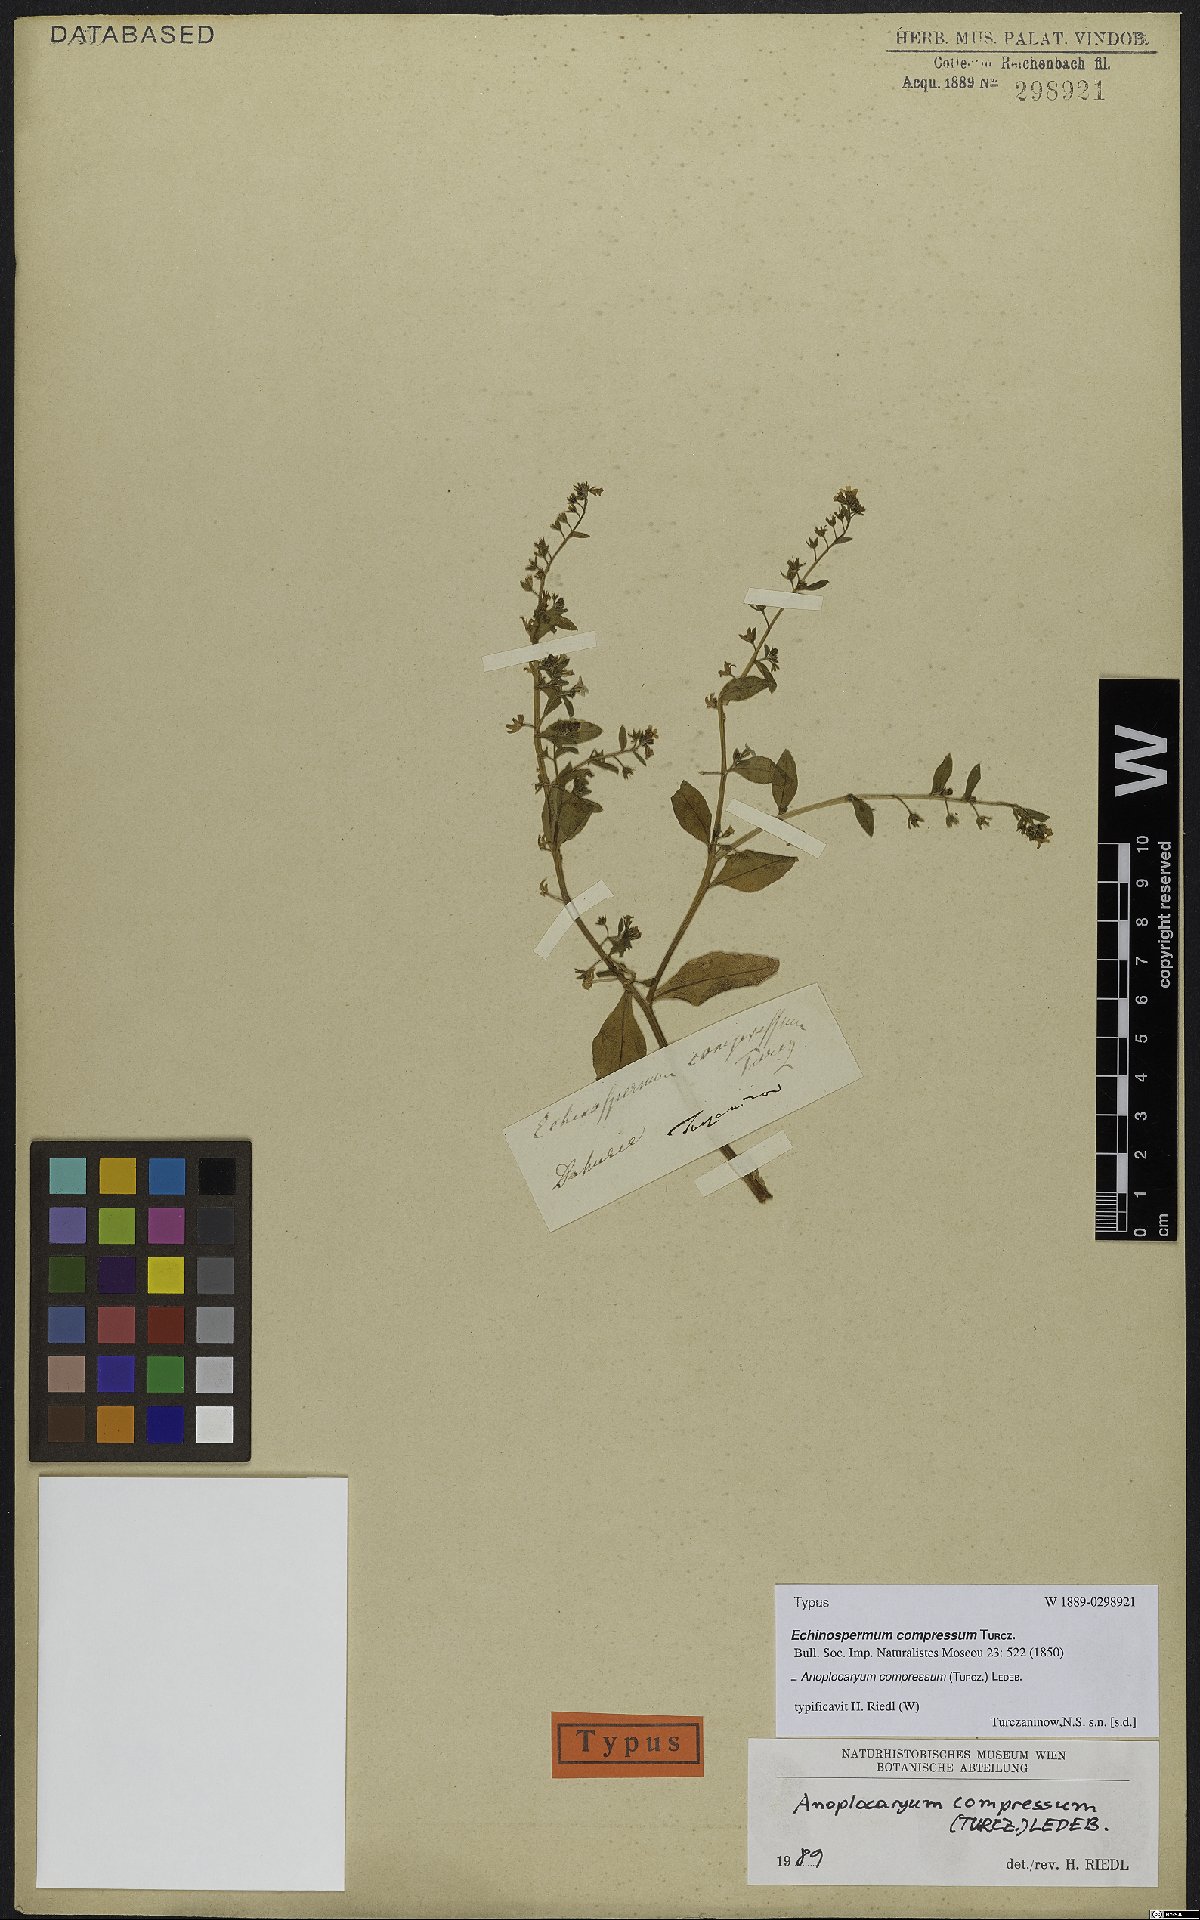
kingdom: Plantae
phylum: Tracheophyta
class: Magnoliopsida
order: Boraginales
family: Boraginaceae
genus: Anoplocaryum
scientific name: Anoplocaryum compressum
